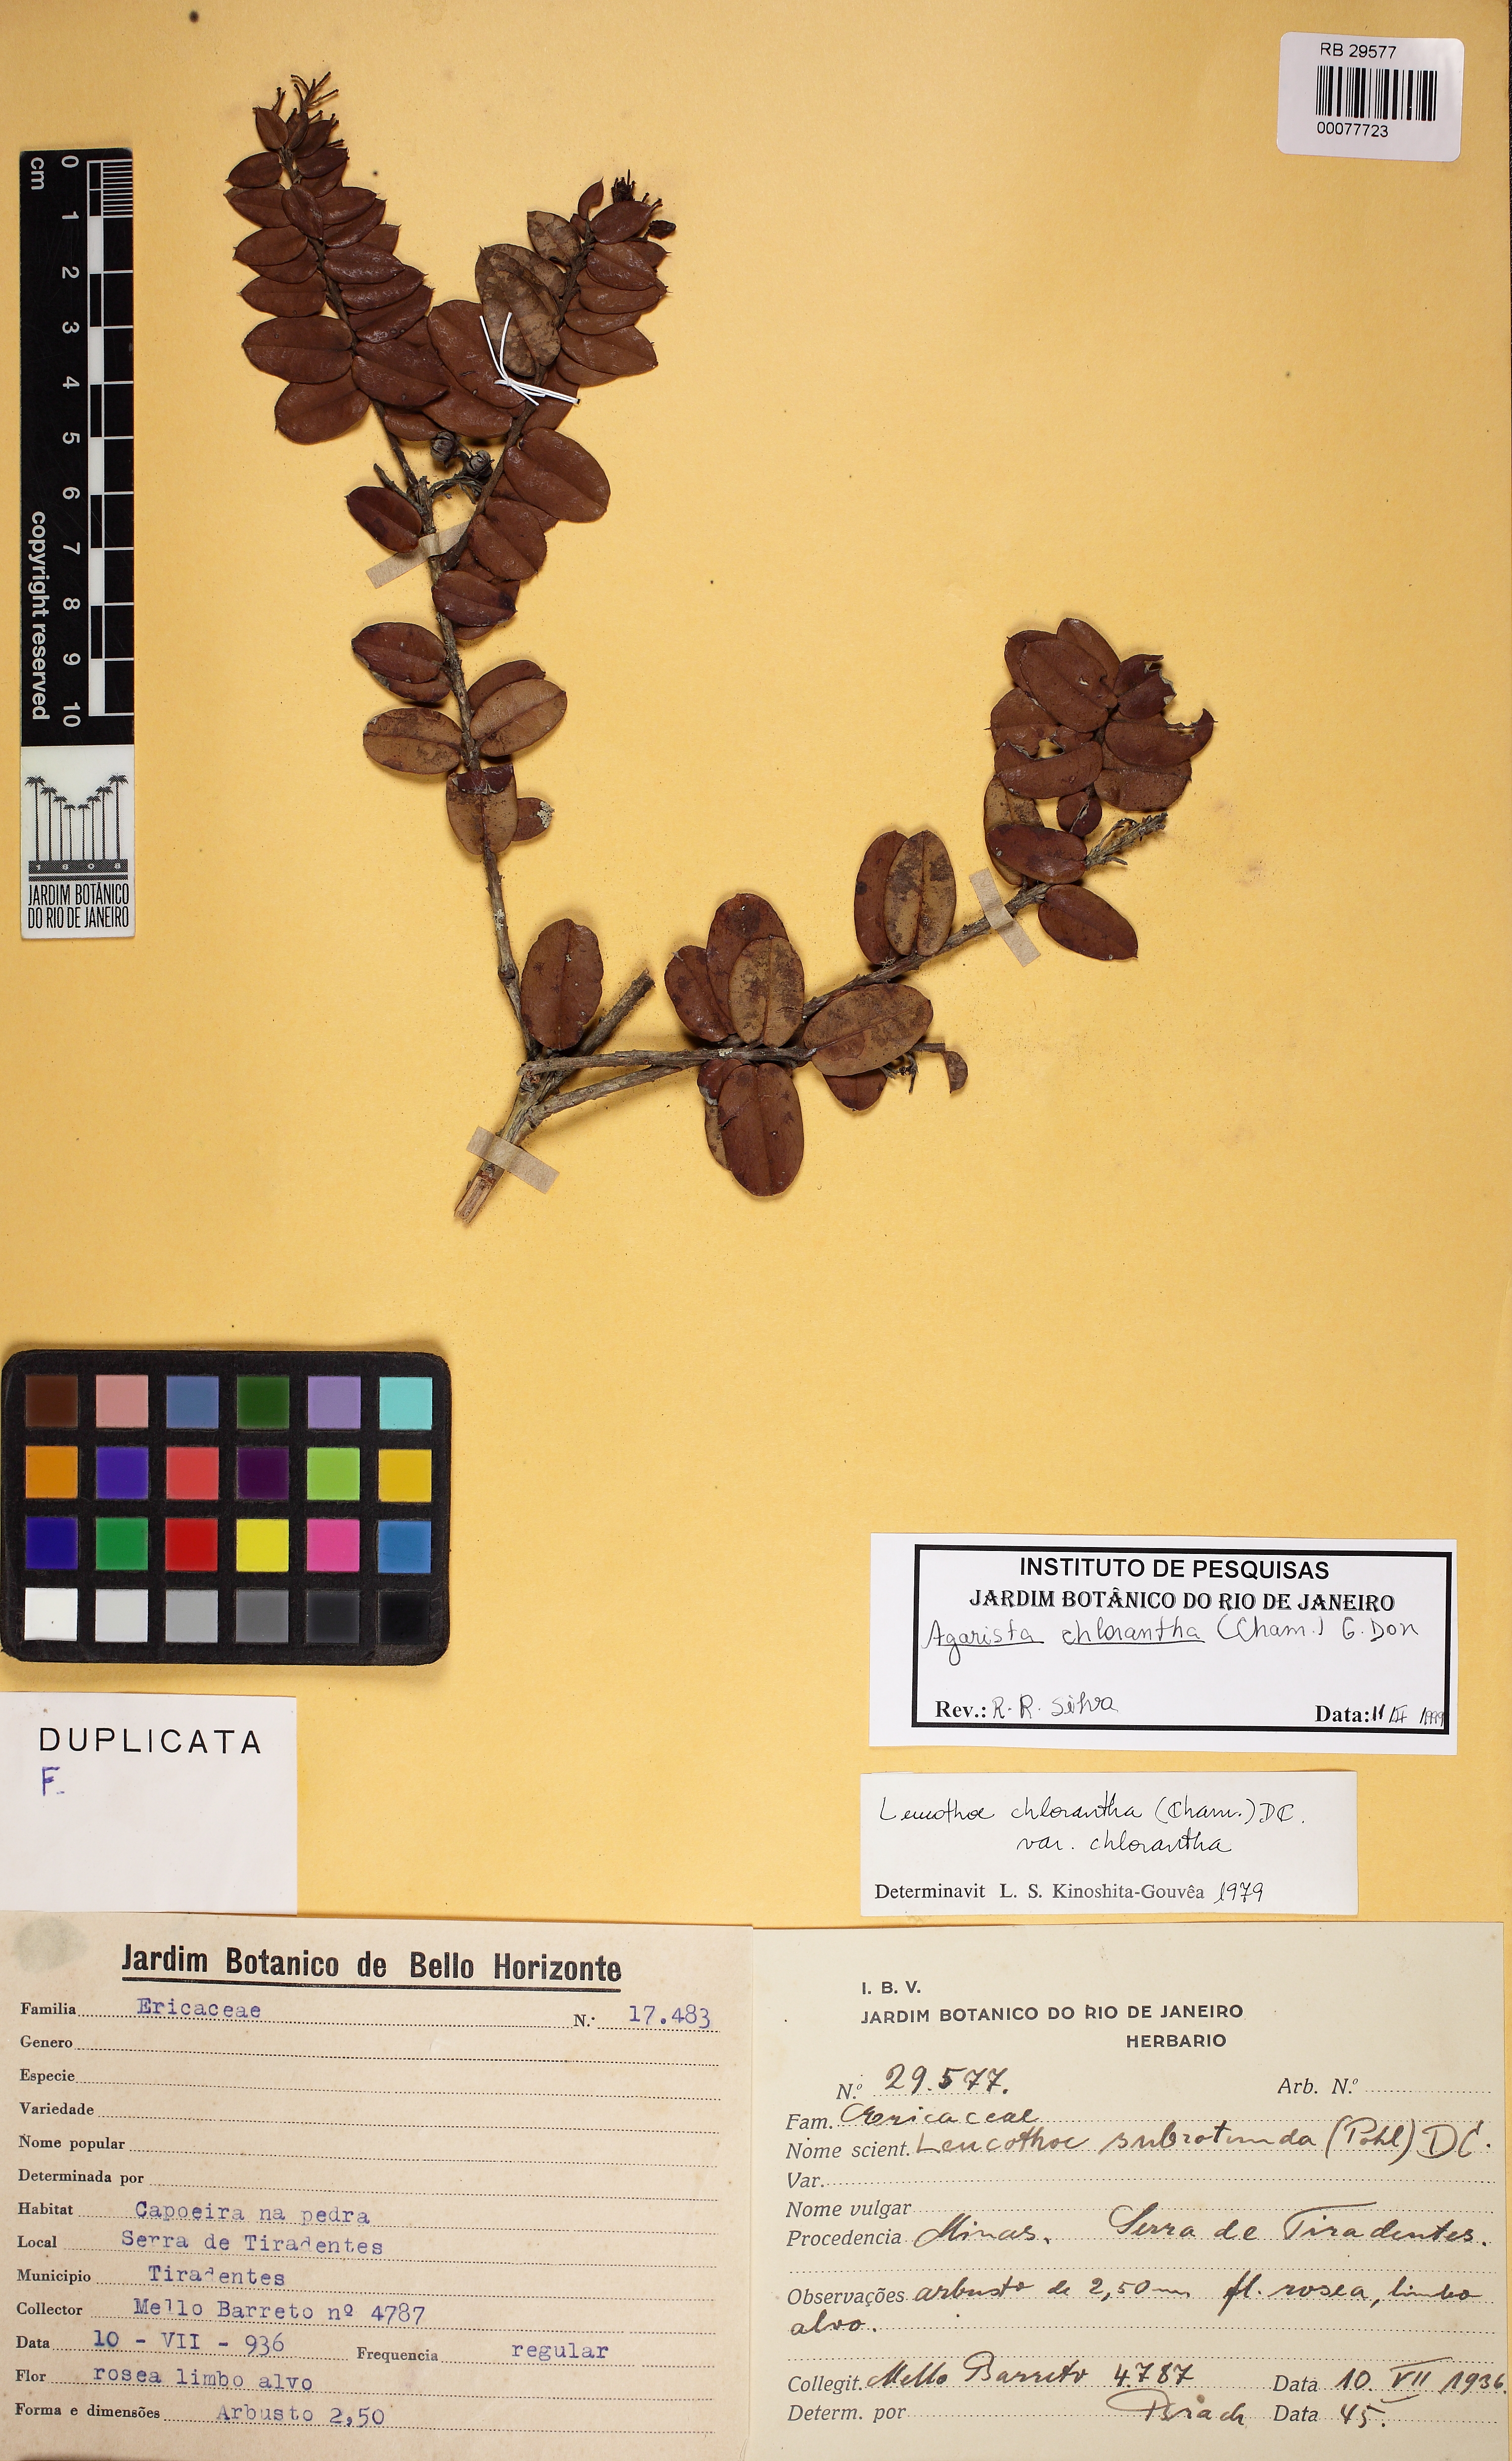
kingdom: Plantae
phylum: Tracheophyta
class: Magnoliopsida
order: Ericales
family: Ericaceae
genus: Agarista
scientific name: Agarista chlorantha
